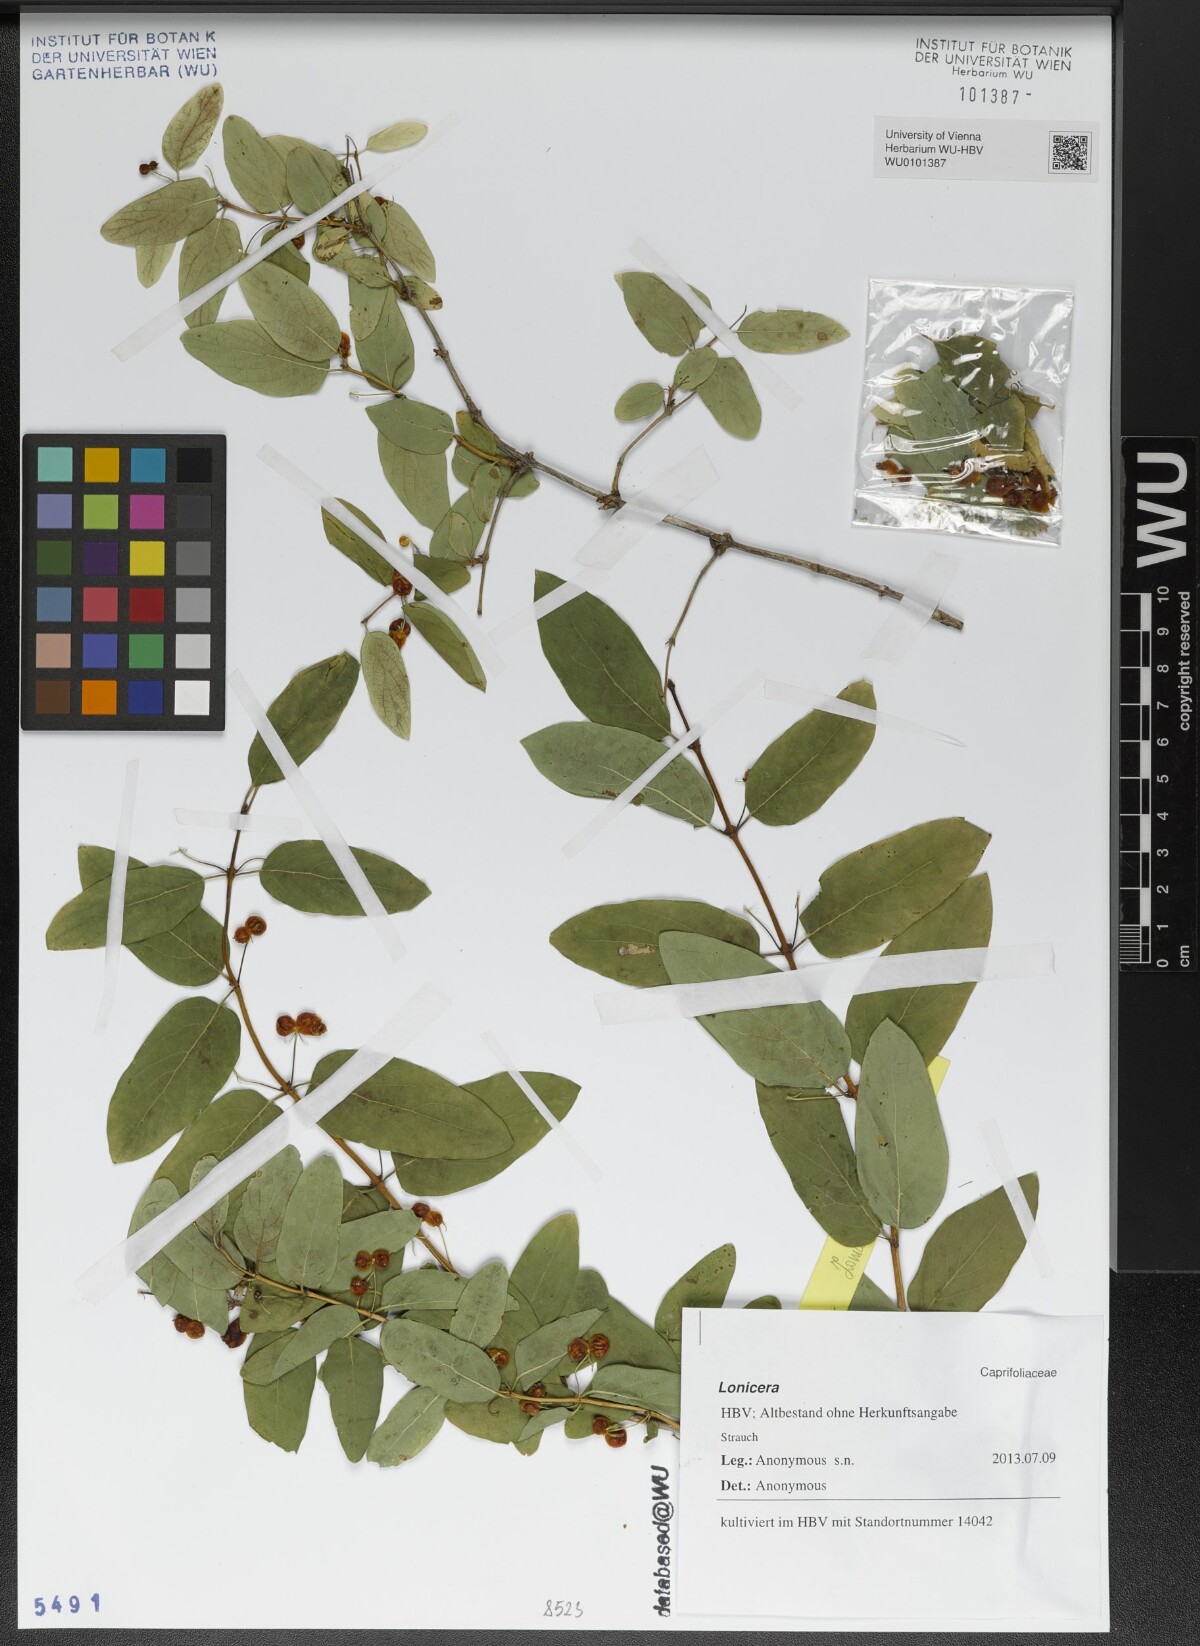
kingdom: Plantae
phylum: Tracheophyta
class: Magnoliopsida
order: Dipsacales
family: Caprifoliaceae
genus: Lonicera
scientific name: Lonicera
